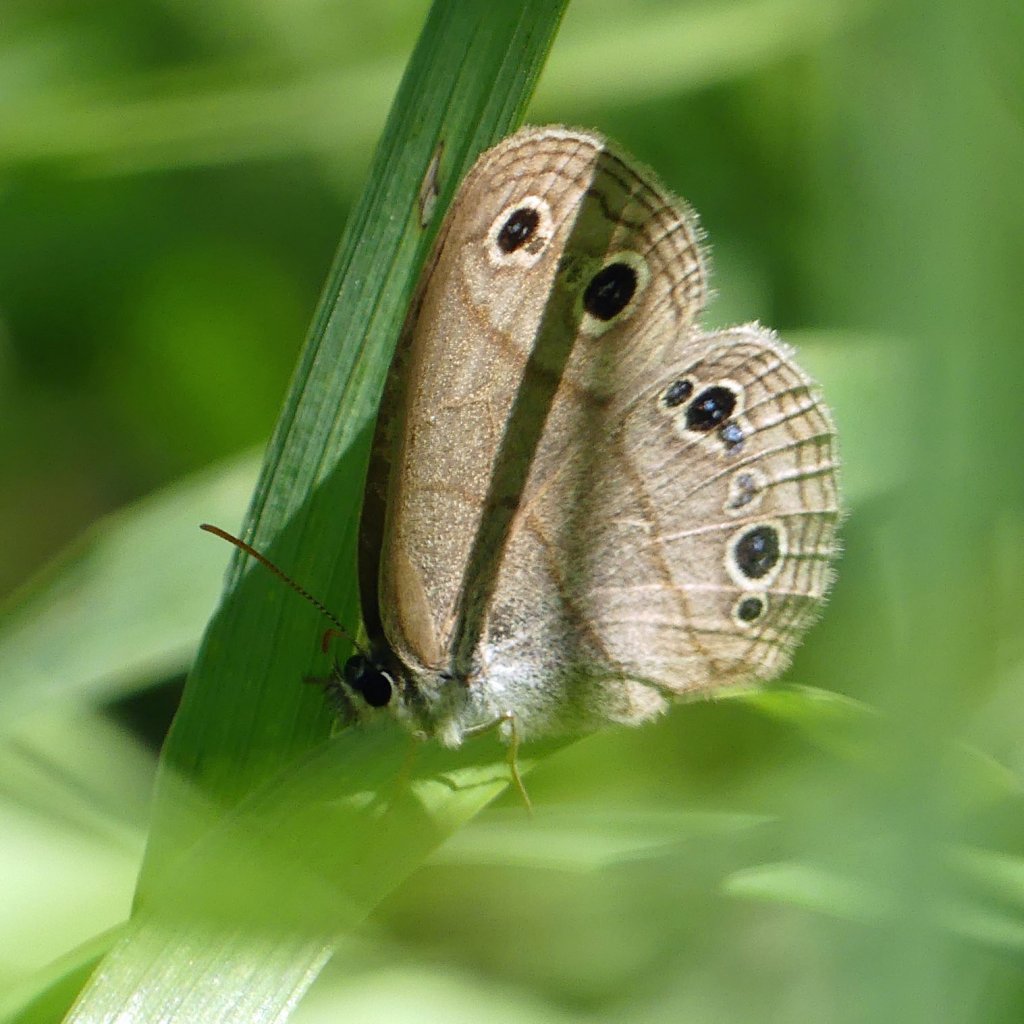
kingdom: Animalia
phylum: Arthropoda
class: Insecta
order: Lepidoptera
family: Nymphalidae
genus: Euptychia
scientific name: Euptychia cymela
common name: Little Wood Satyr
